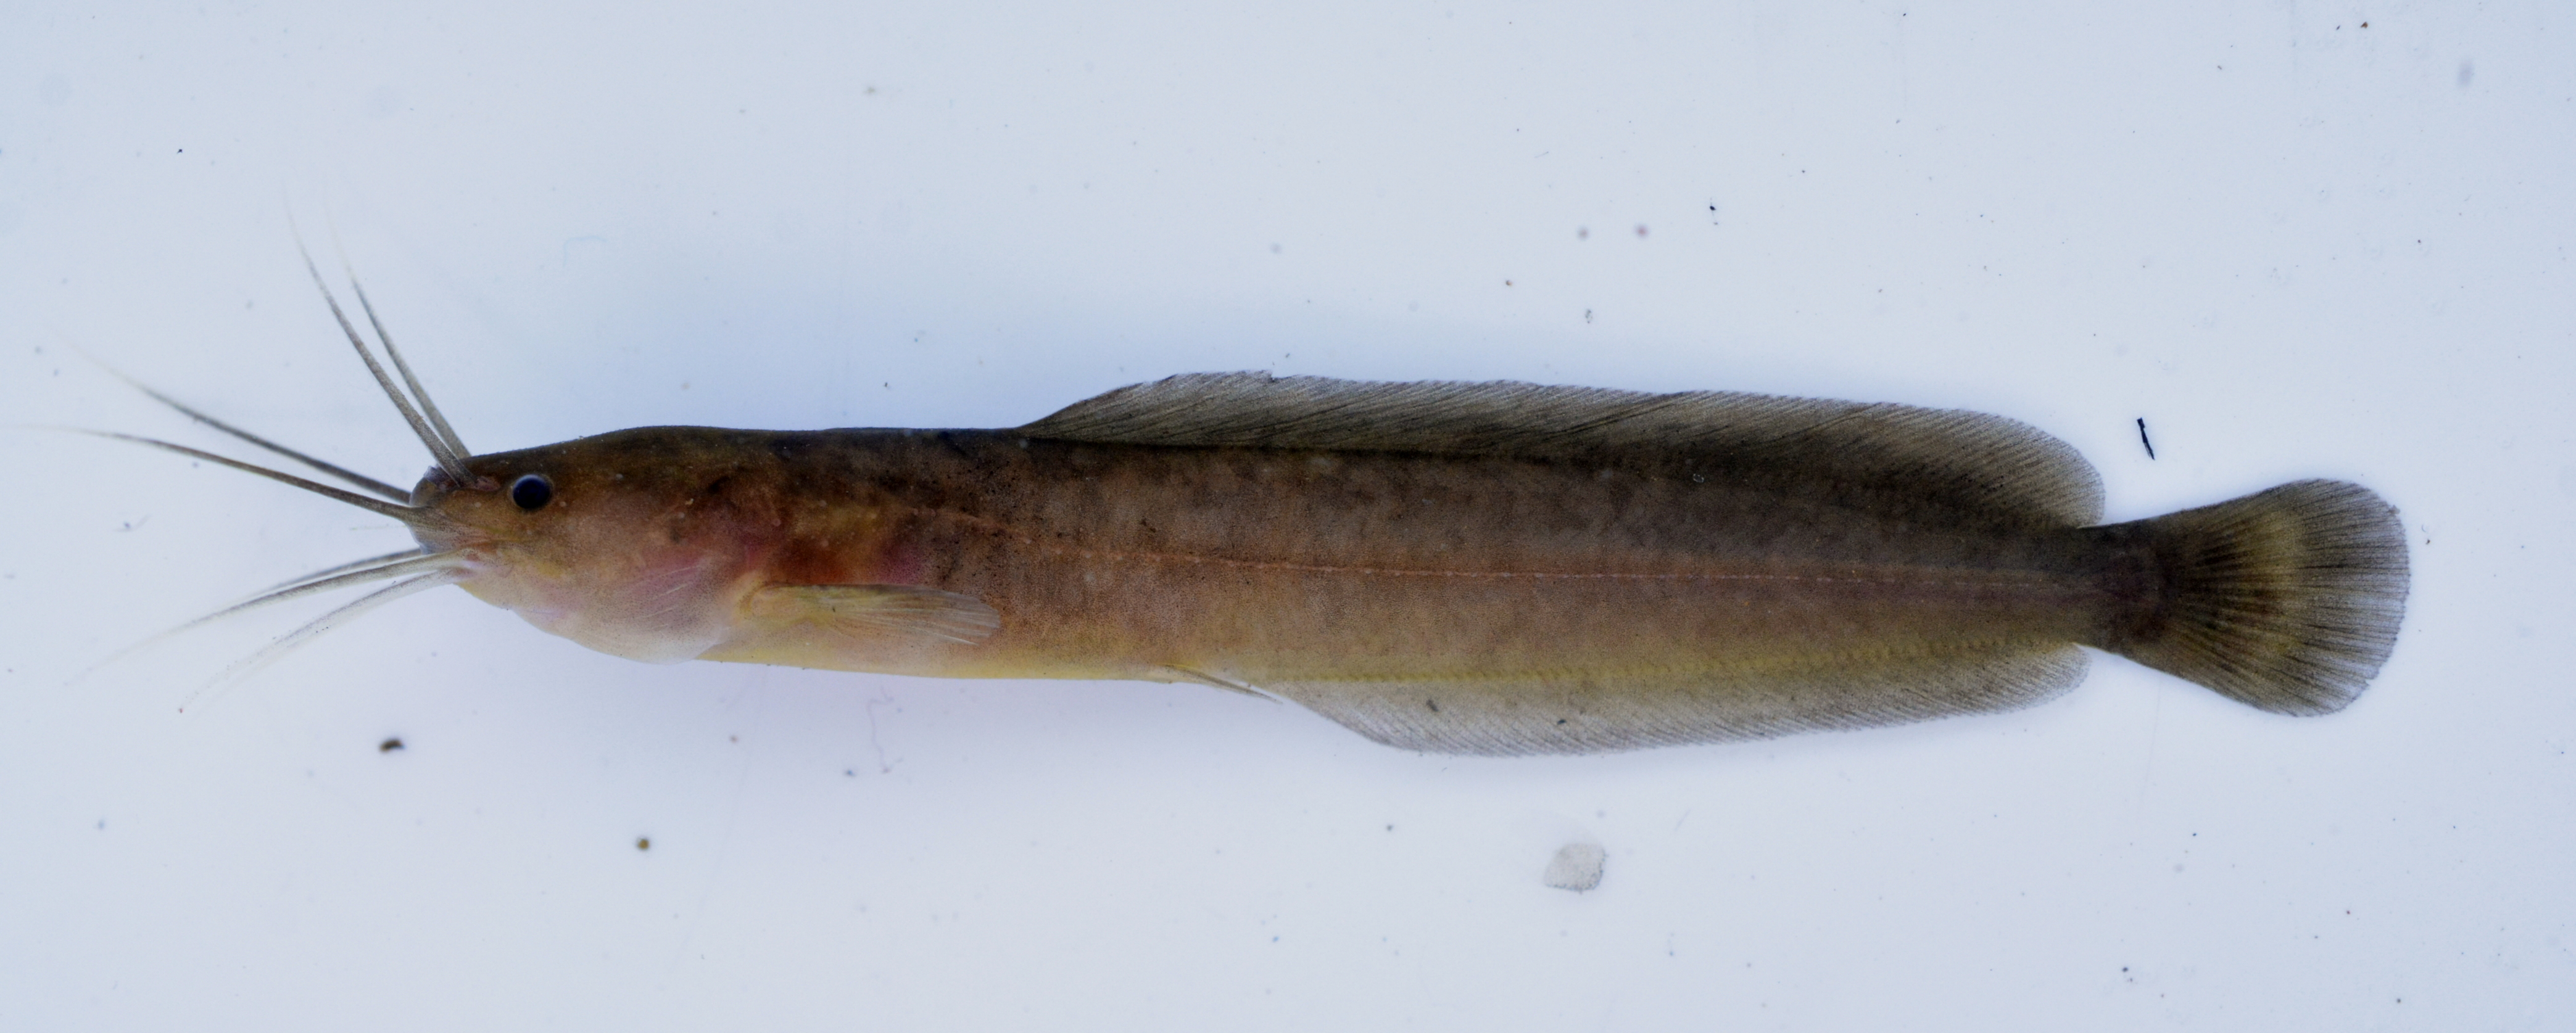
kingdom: Animalia
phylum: Chordata
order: Siluriformes
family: Clariidae
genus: Clarias
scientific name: Clarias liocephalus
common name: Smooth-head catfish
